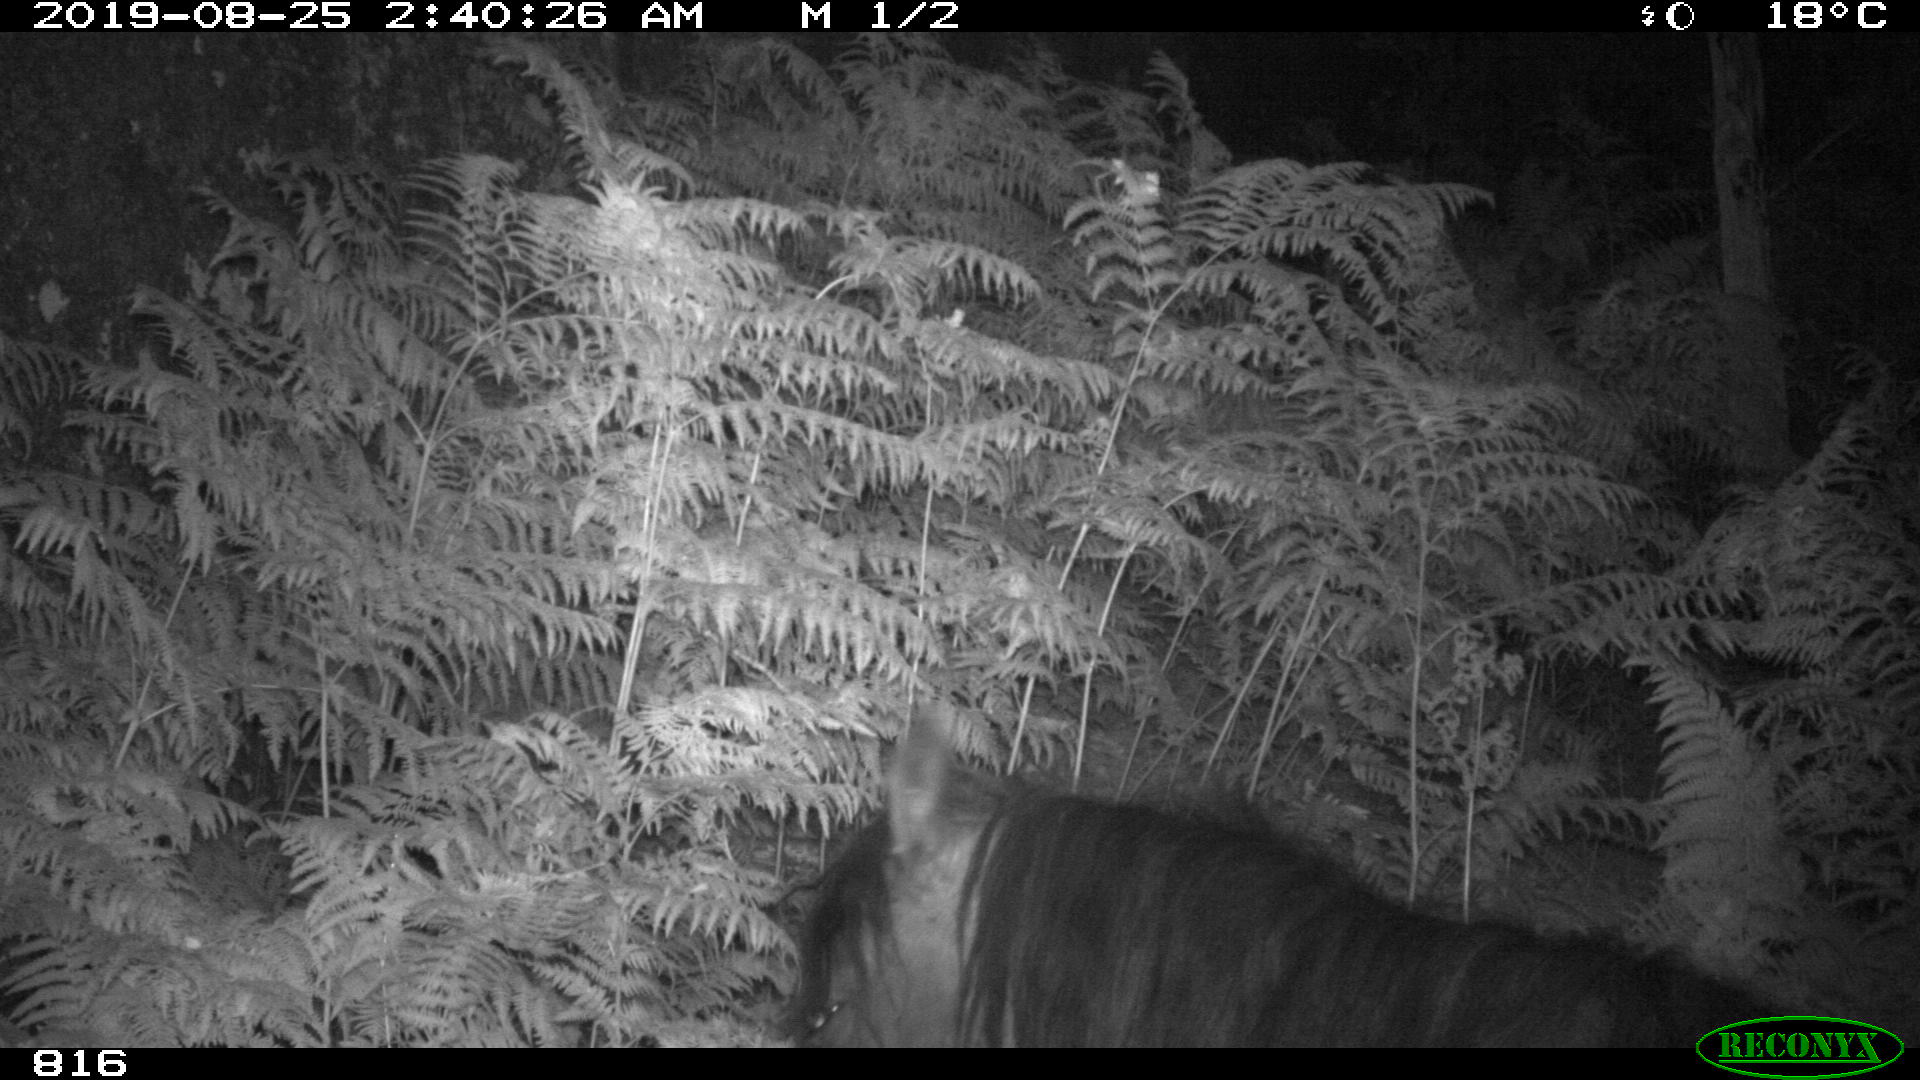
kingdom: Animalia
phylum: Chordata
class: Mammalia
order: Perissodactyla
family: Equidae
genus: Equus
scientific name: Equus caballus
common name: Horse
